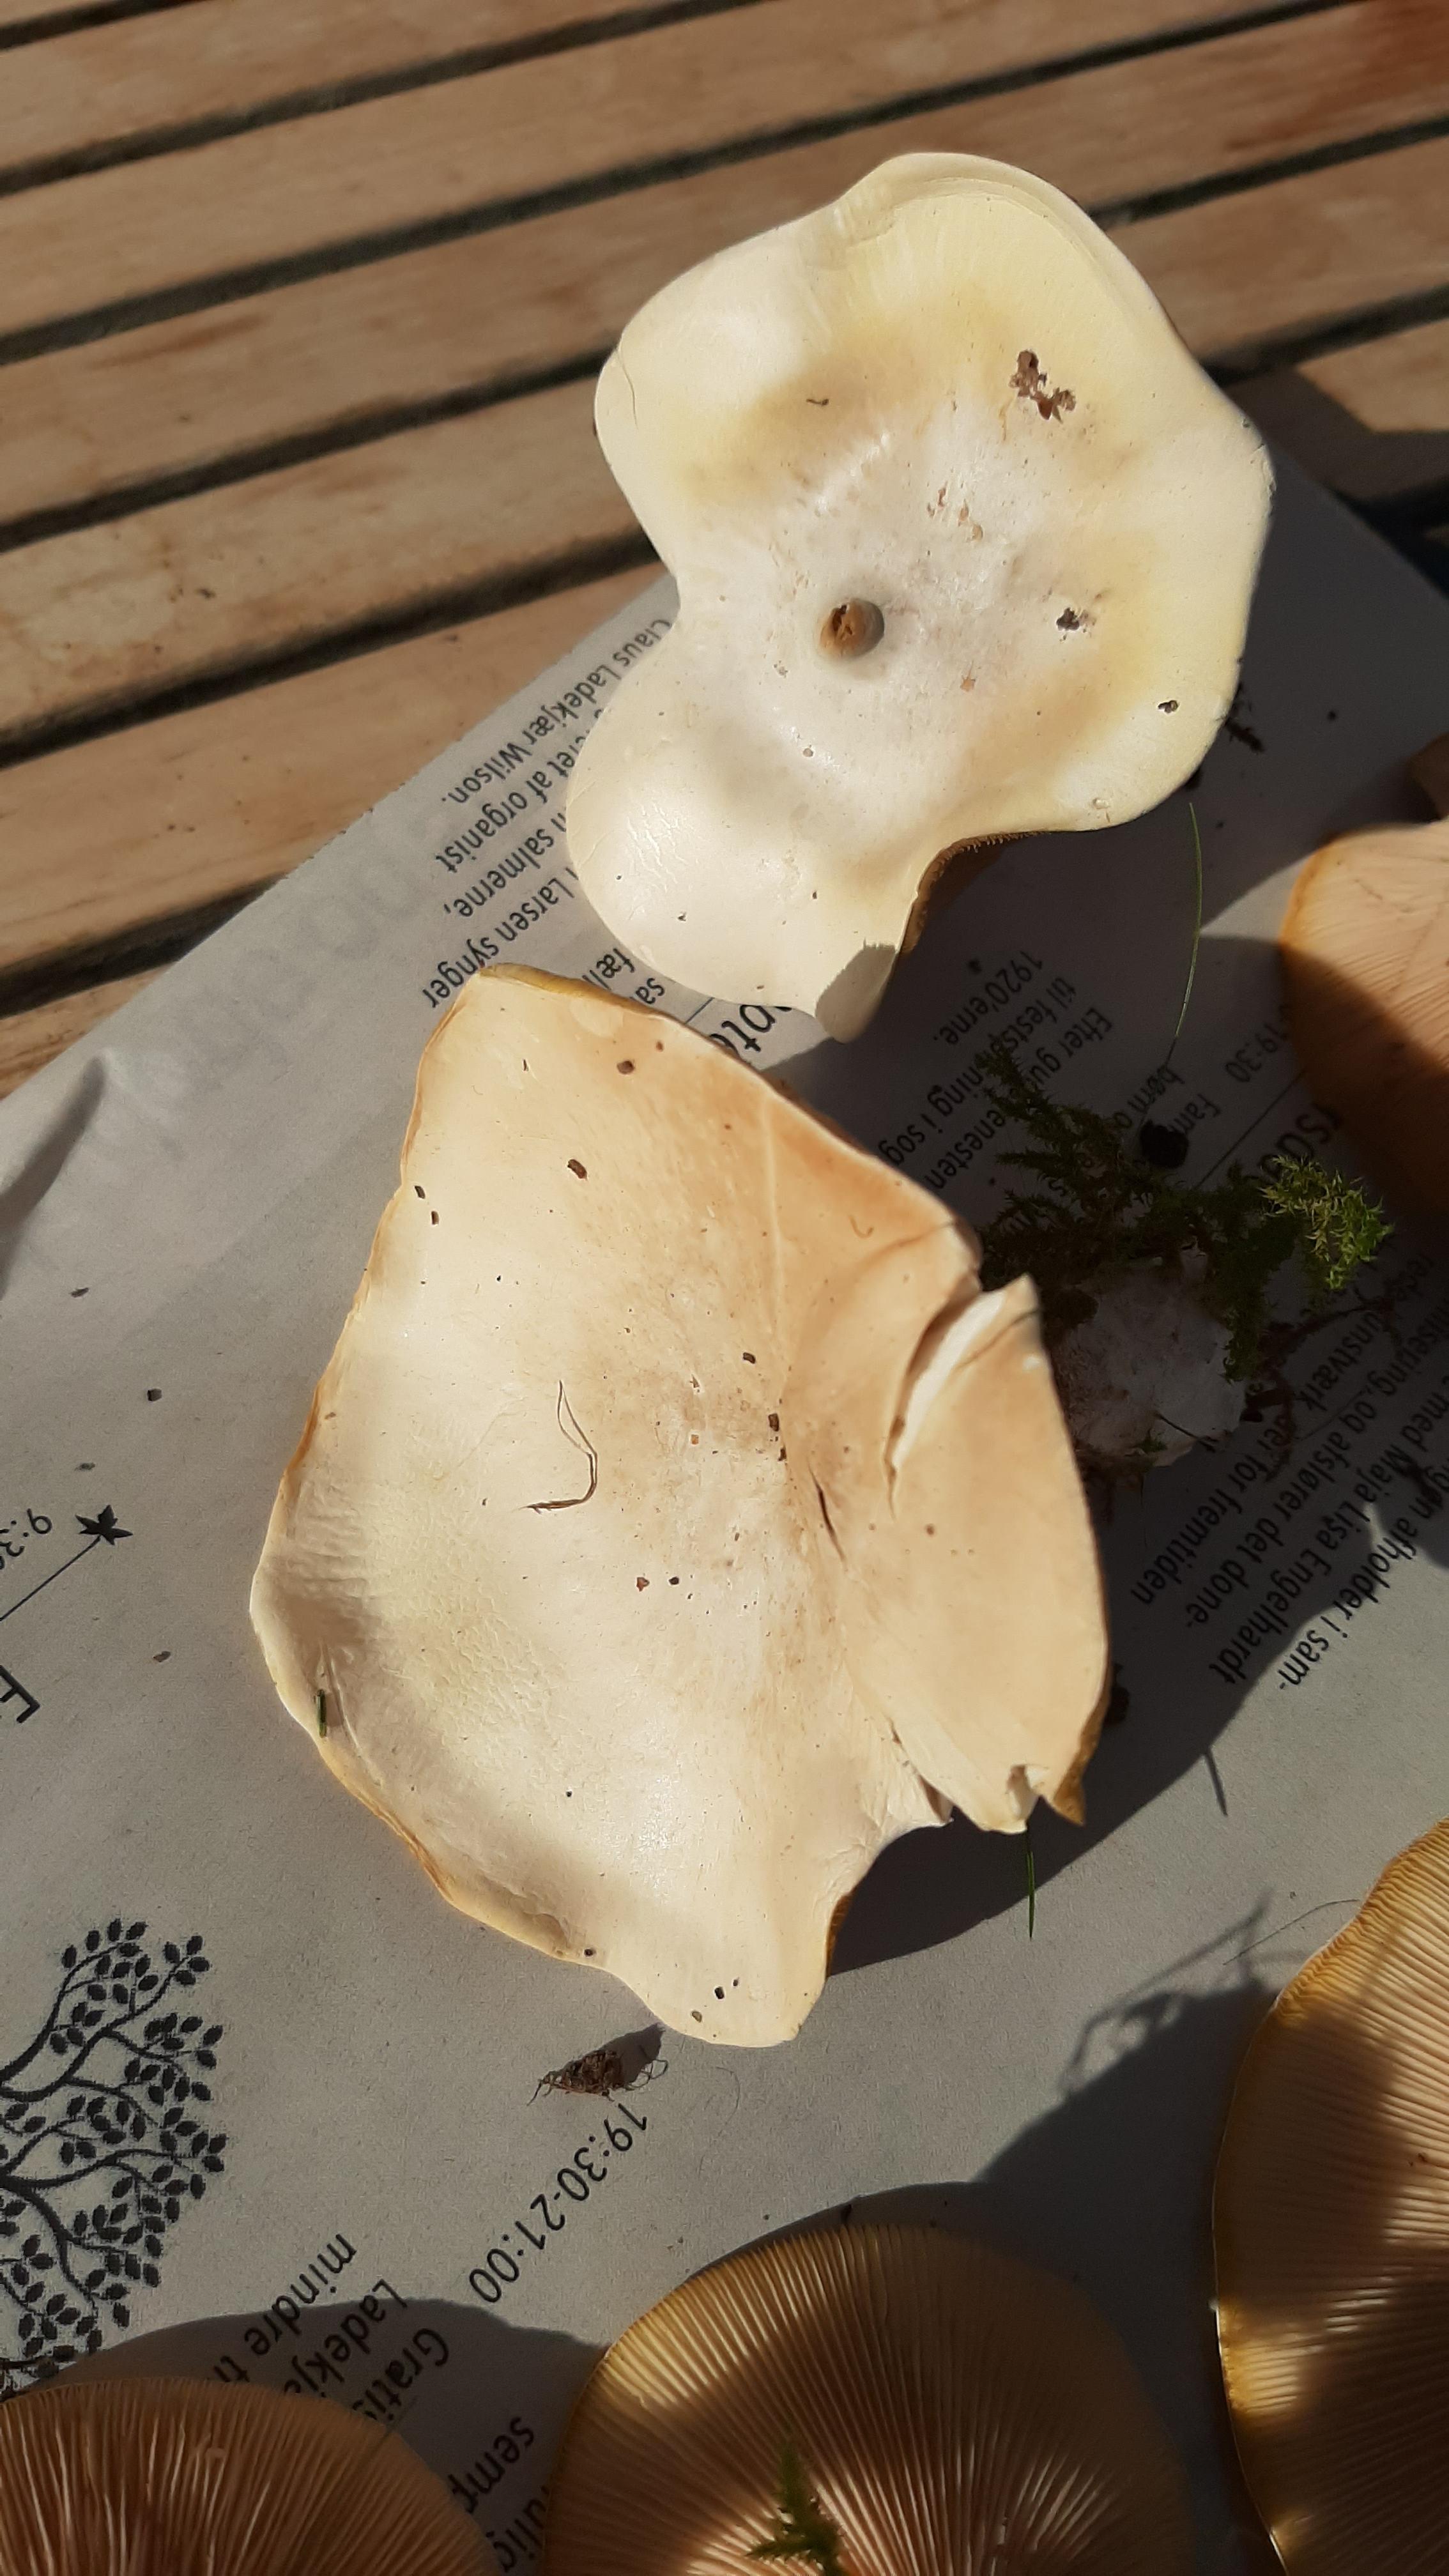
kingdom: Fungi
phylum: Basidiomycota
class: Agaricomycetes
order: Agaricales
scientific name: Agaricales
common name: champignonordenen
